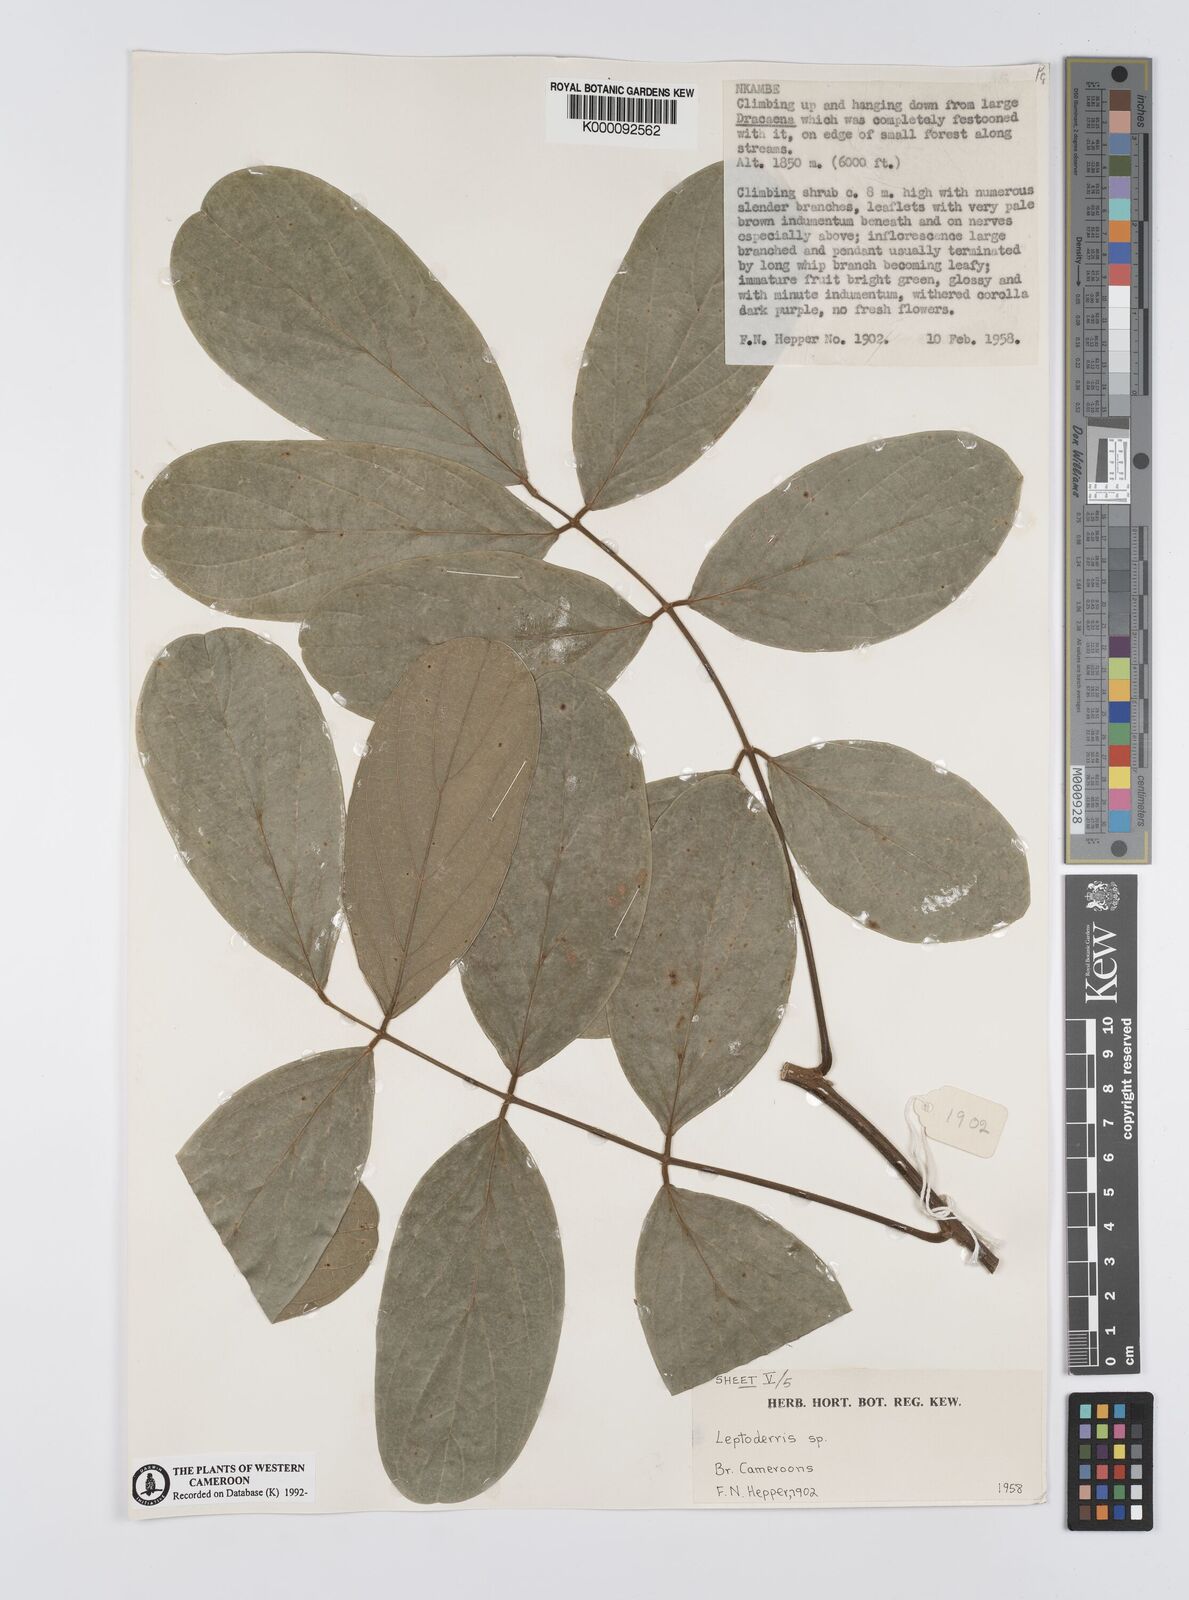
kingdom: Plantae
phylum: Tracheophyta
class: Magnoliopsida
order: Fabales
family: Fabaceae
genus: Leptoderris
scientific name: Leptoderris
